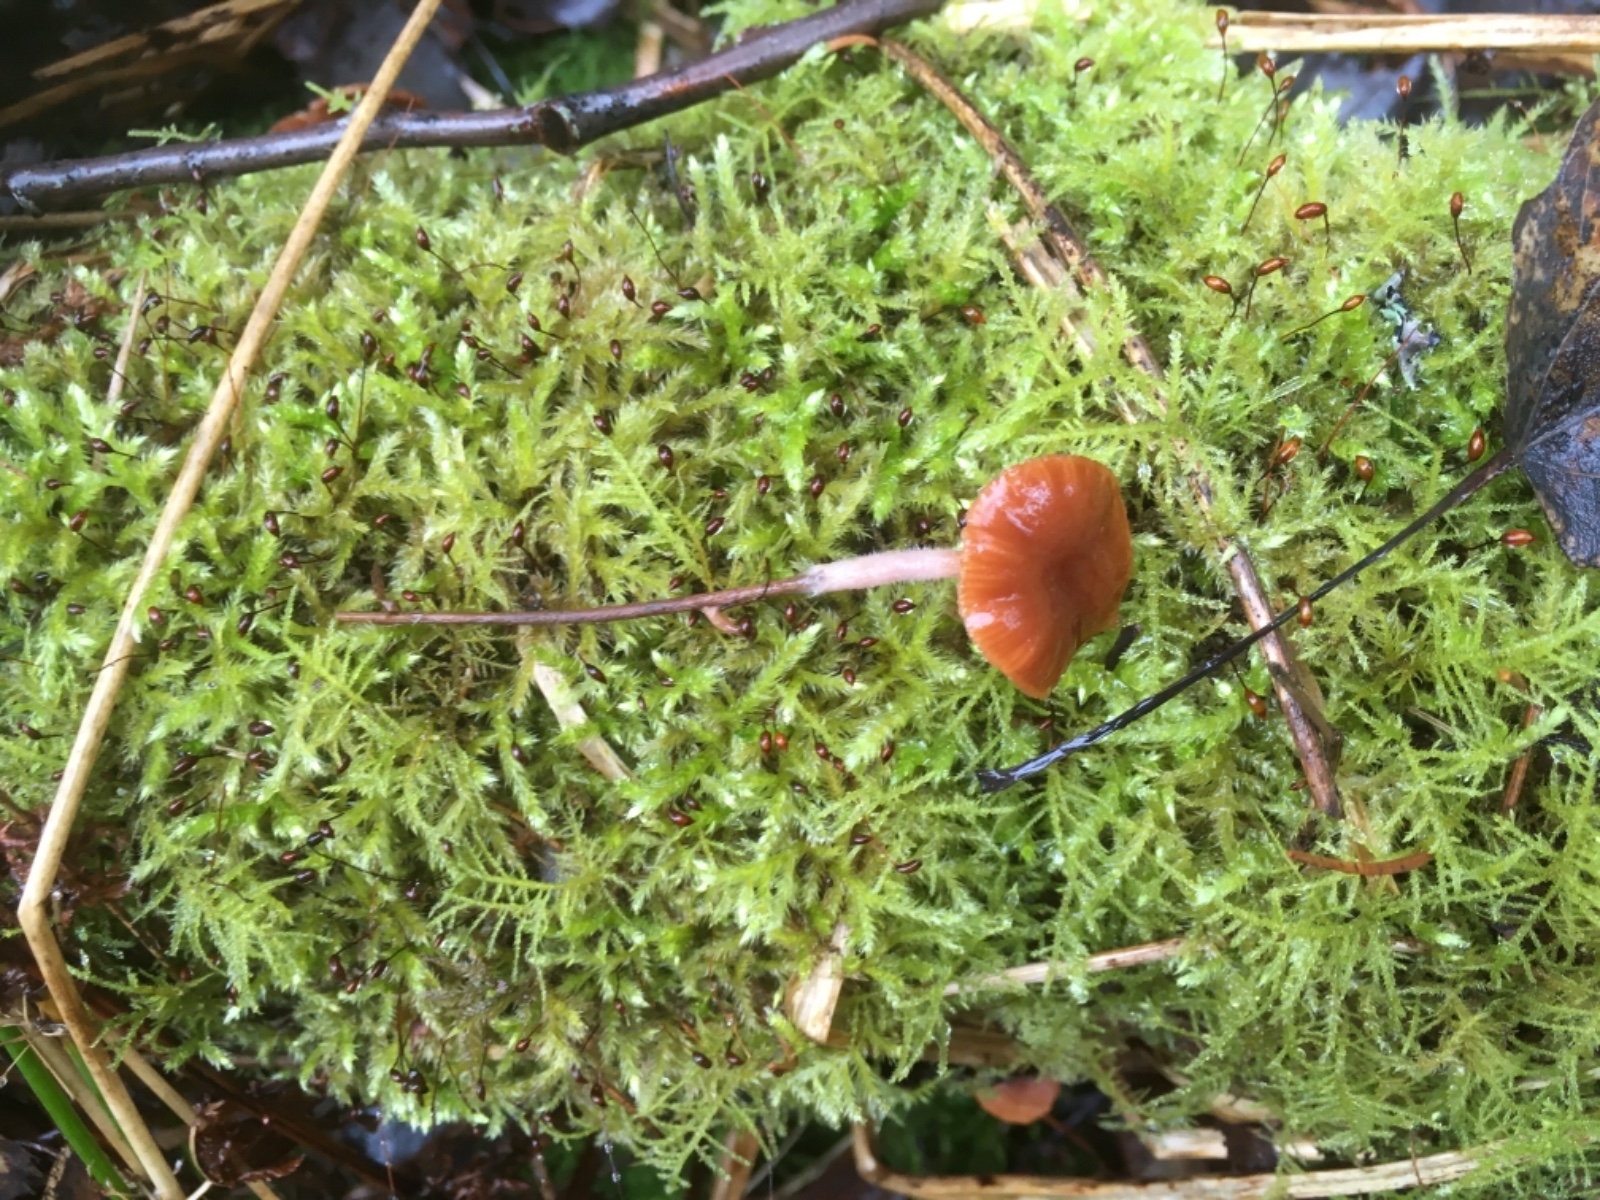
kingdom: Fungi
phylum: Basidiomycota
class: Agaricomycetes
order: Agaricales
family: Tubariaceae
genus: Tubaria
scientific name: Tubaria furfuracea
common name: kliddet fnughat
